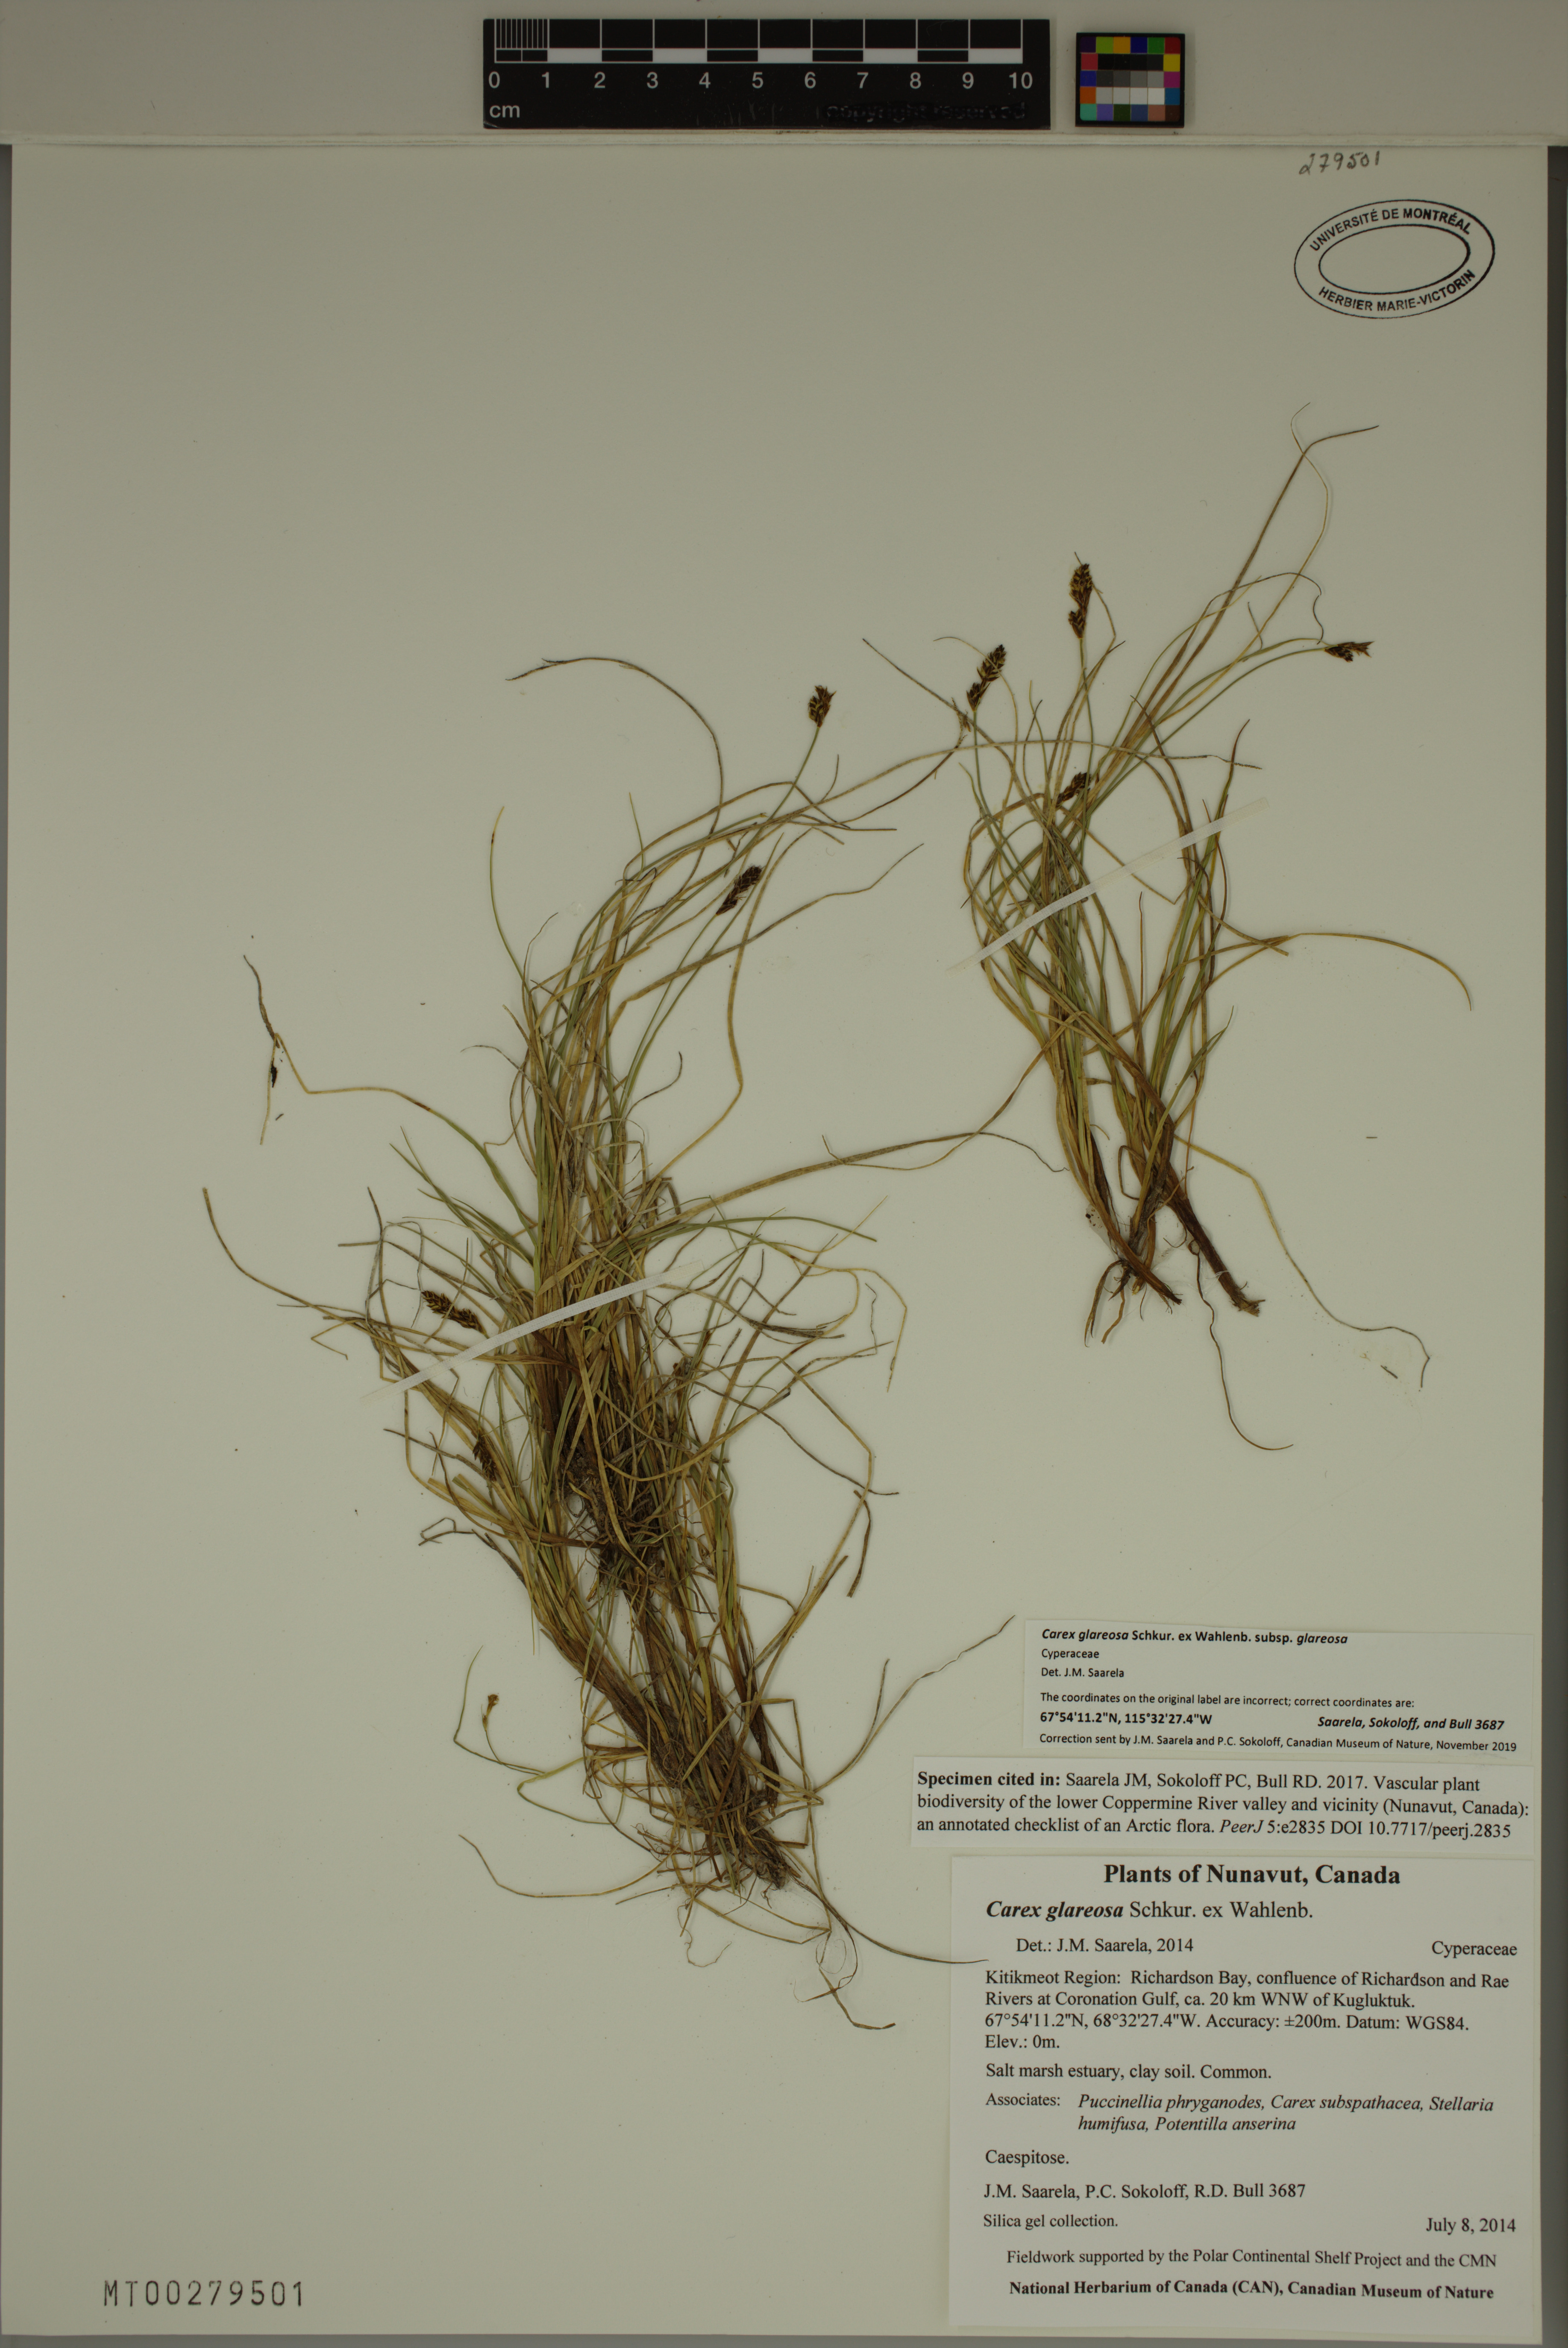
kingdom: Plantae
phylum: Tracheophyta
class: Liliopsida
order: Poales
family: Cyperaceae
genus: Carex
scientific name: Carex glareosa
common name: Clustered sedge
